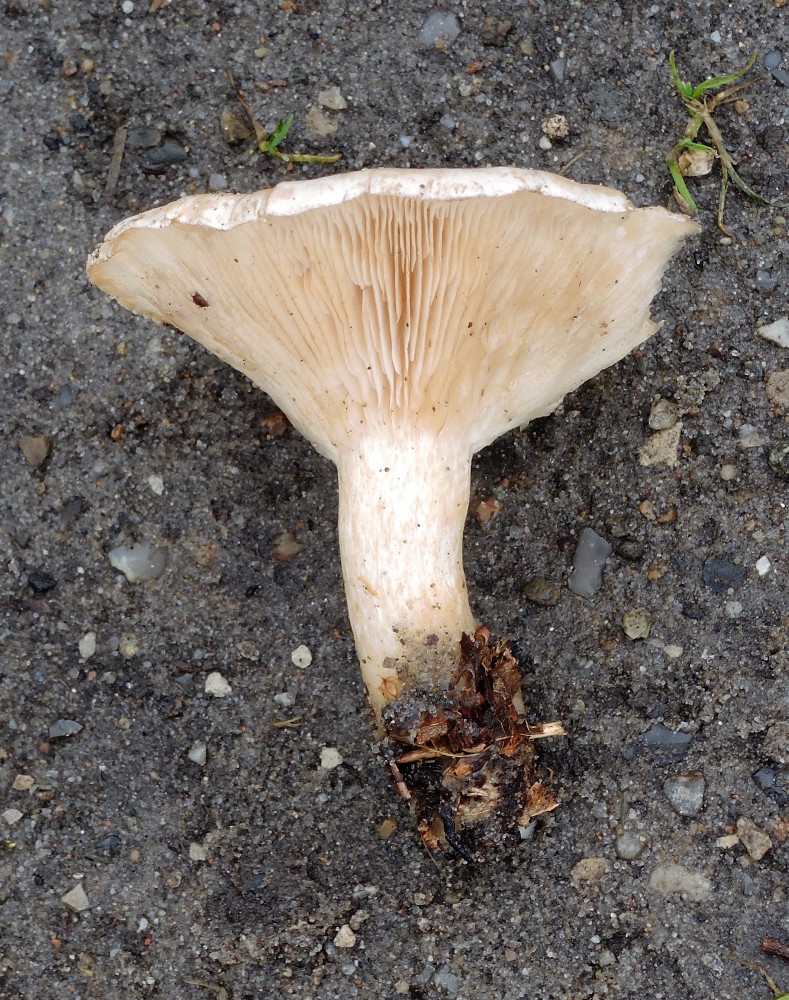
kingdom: Fungi
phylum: Basidiomycota
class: Agaricomycetes
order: Agaricales
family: Tricholomataceae
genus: Clitocybe
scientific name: Clitocybe phyllophila
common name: løv-tragthat
